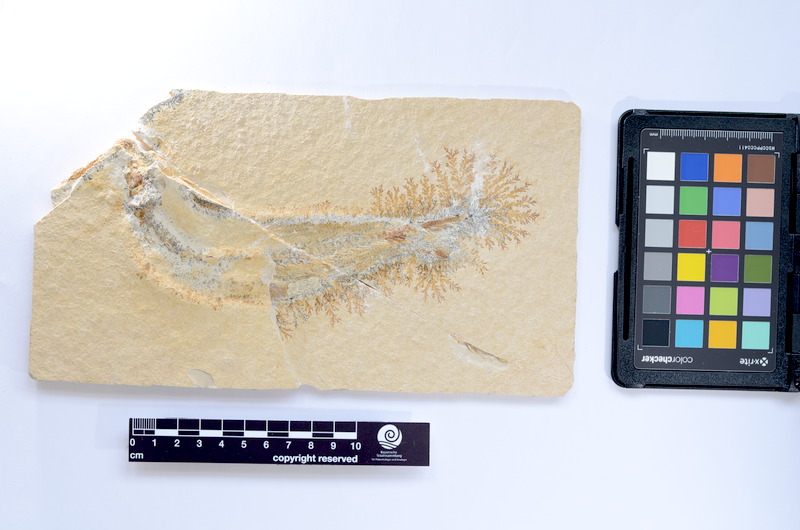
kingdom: Animalia
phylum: Chordata
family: Ascalaboidae
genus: Tharsis
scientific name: Tharsis dubius
